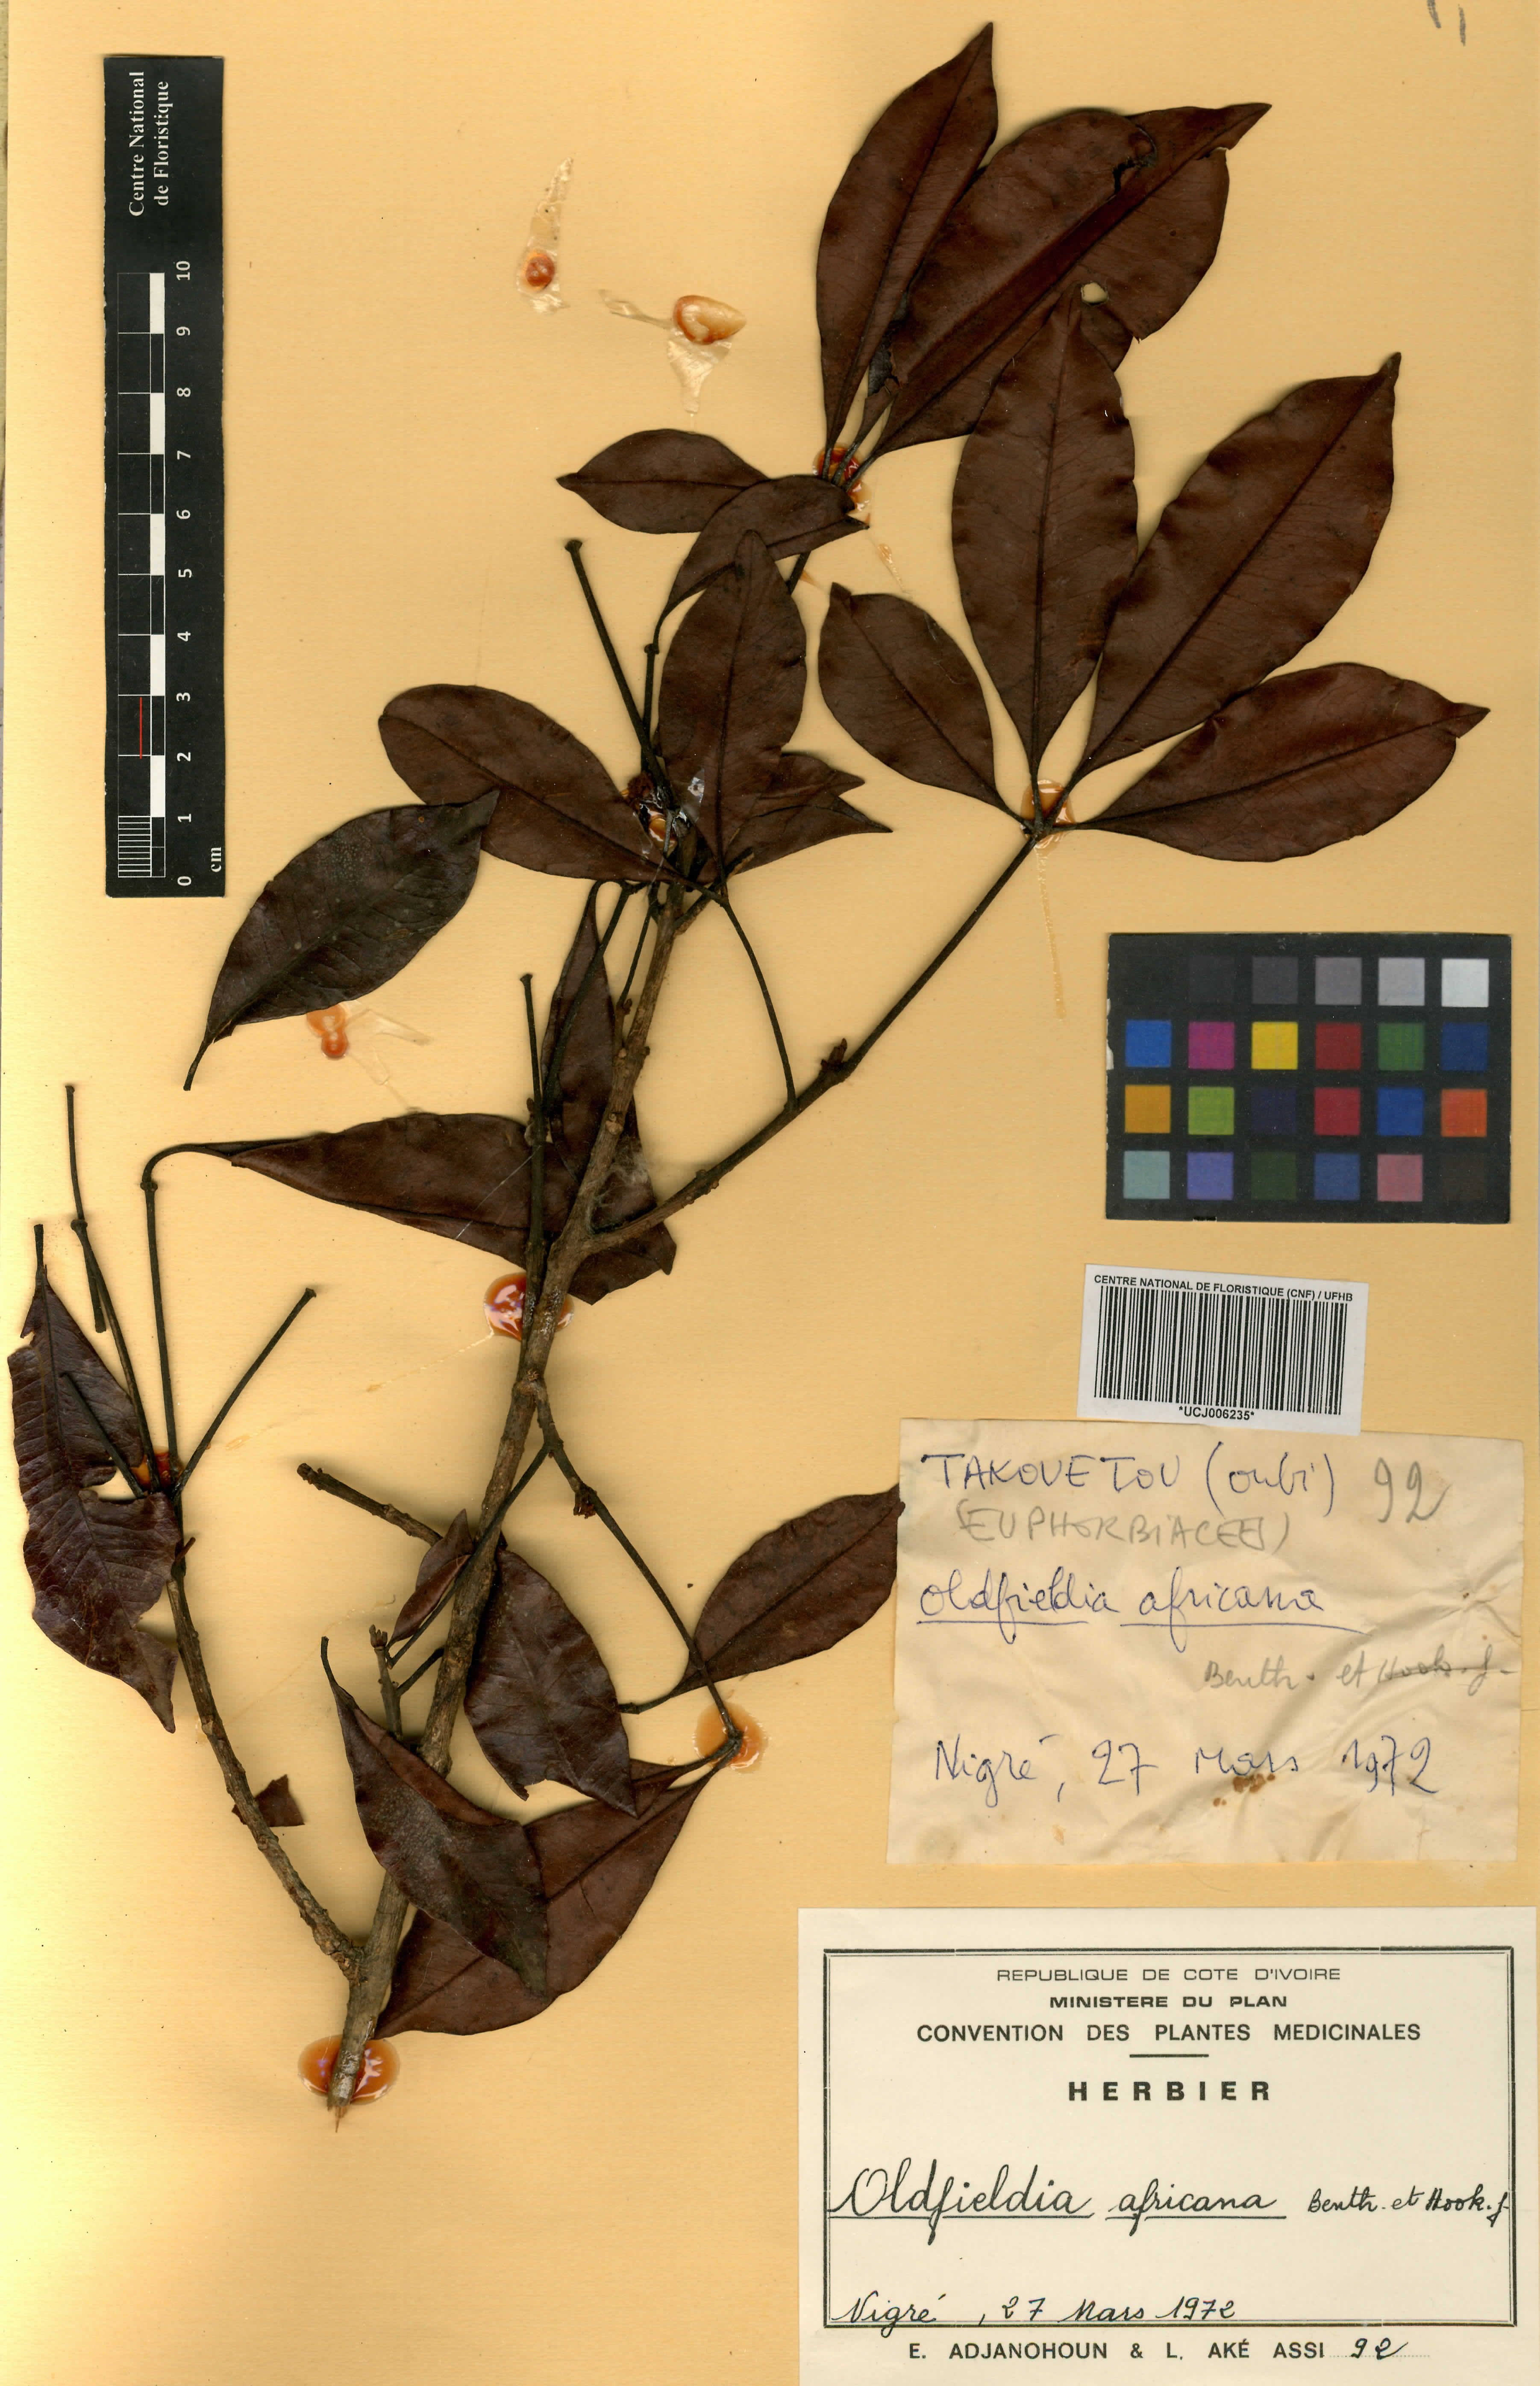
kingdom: Plantae
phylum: Tracheophyta
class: Magnoliopsida
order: Malpighiales
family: Picrodendraceae
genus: Oldfieldia
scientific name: Oldfieldia africana
